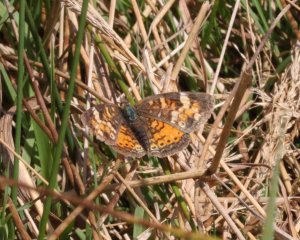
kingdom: Animalia
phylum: Arthropoda
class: Insecta
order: Lepidoptera
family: Nymphalidae
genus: Phyciodes
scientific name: Phyciodes tharos
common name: Northern Crescent
